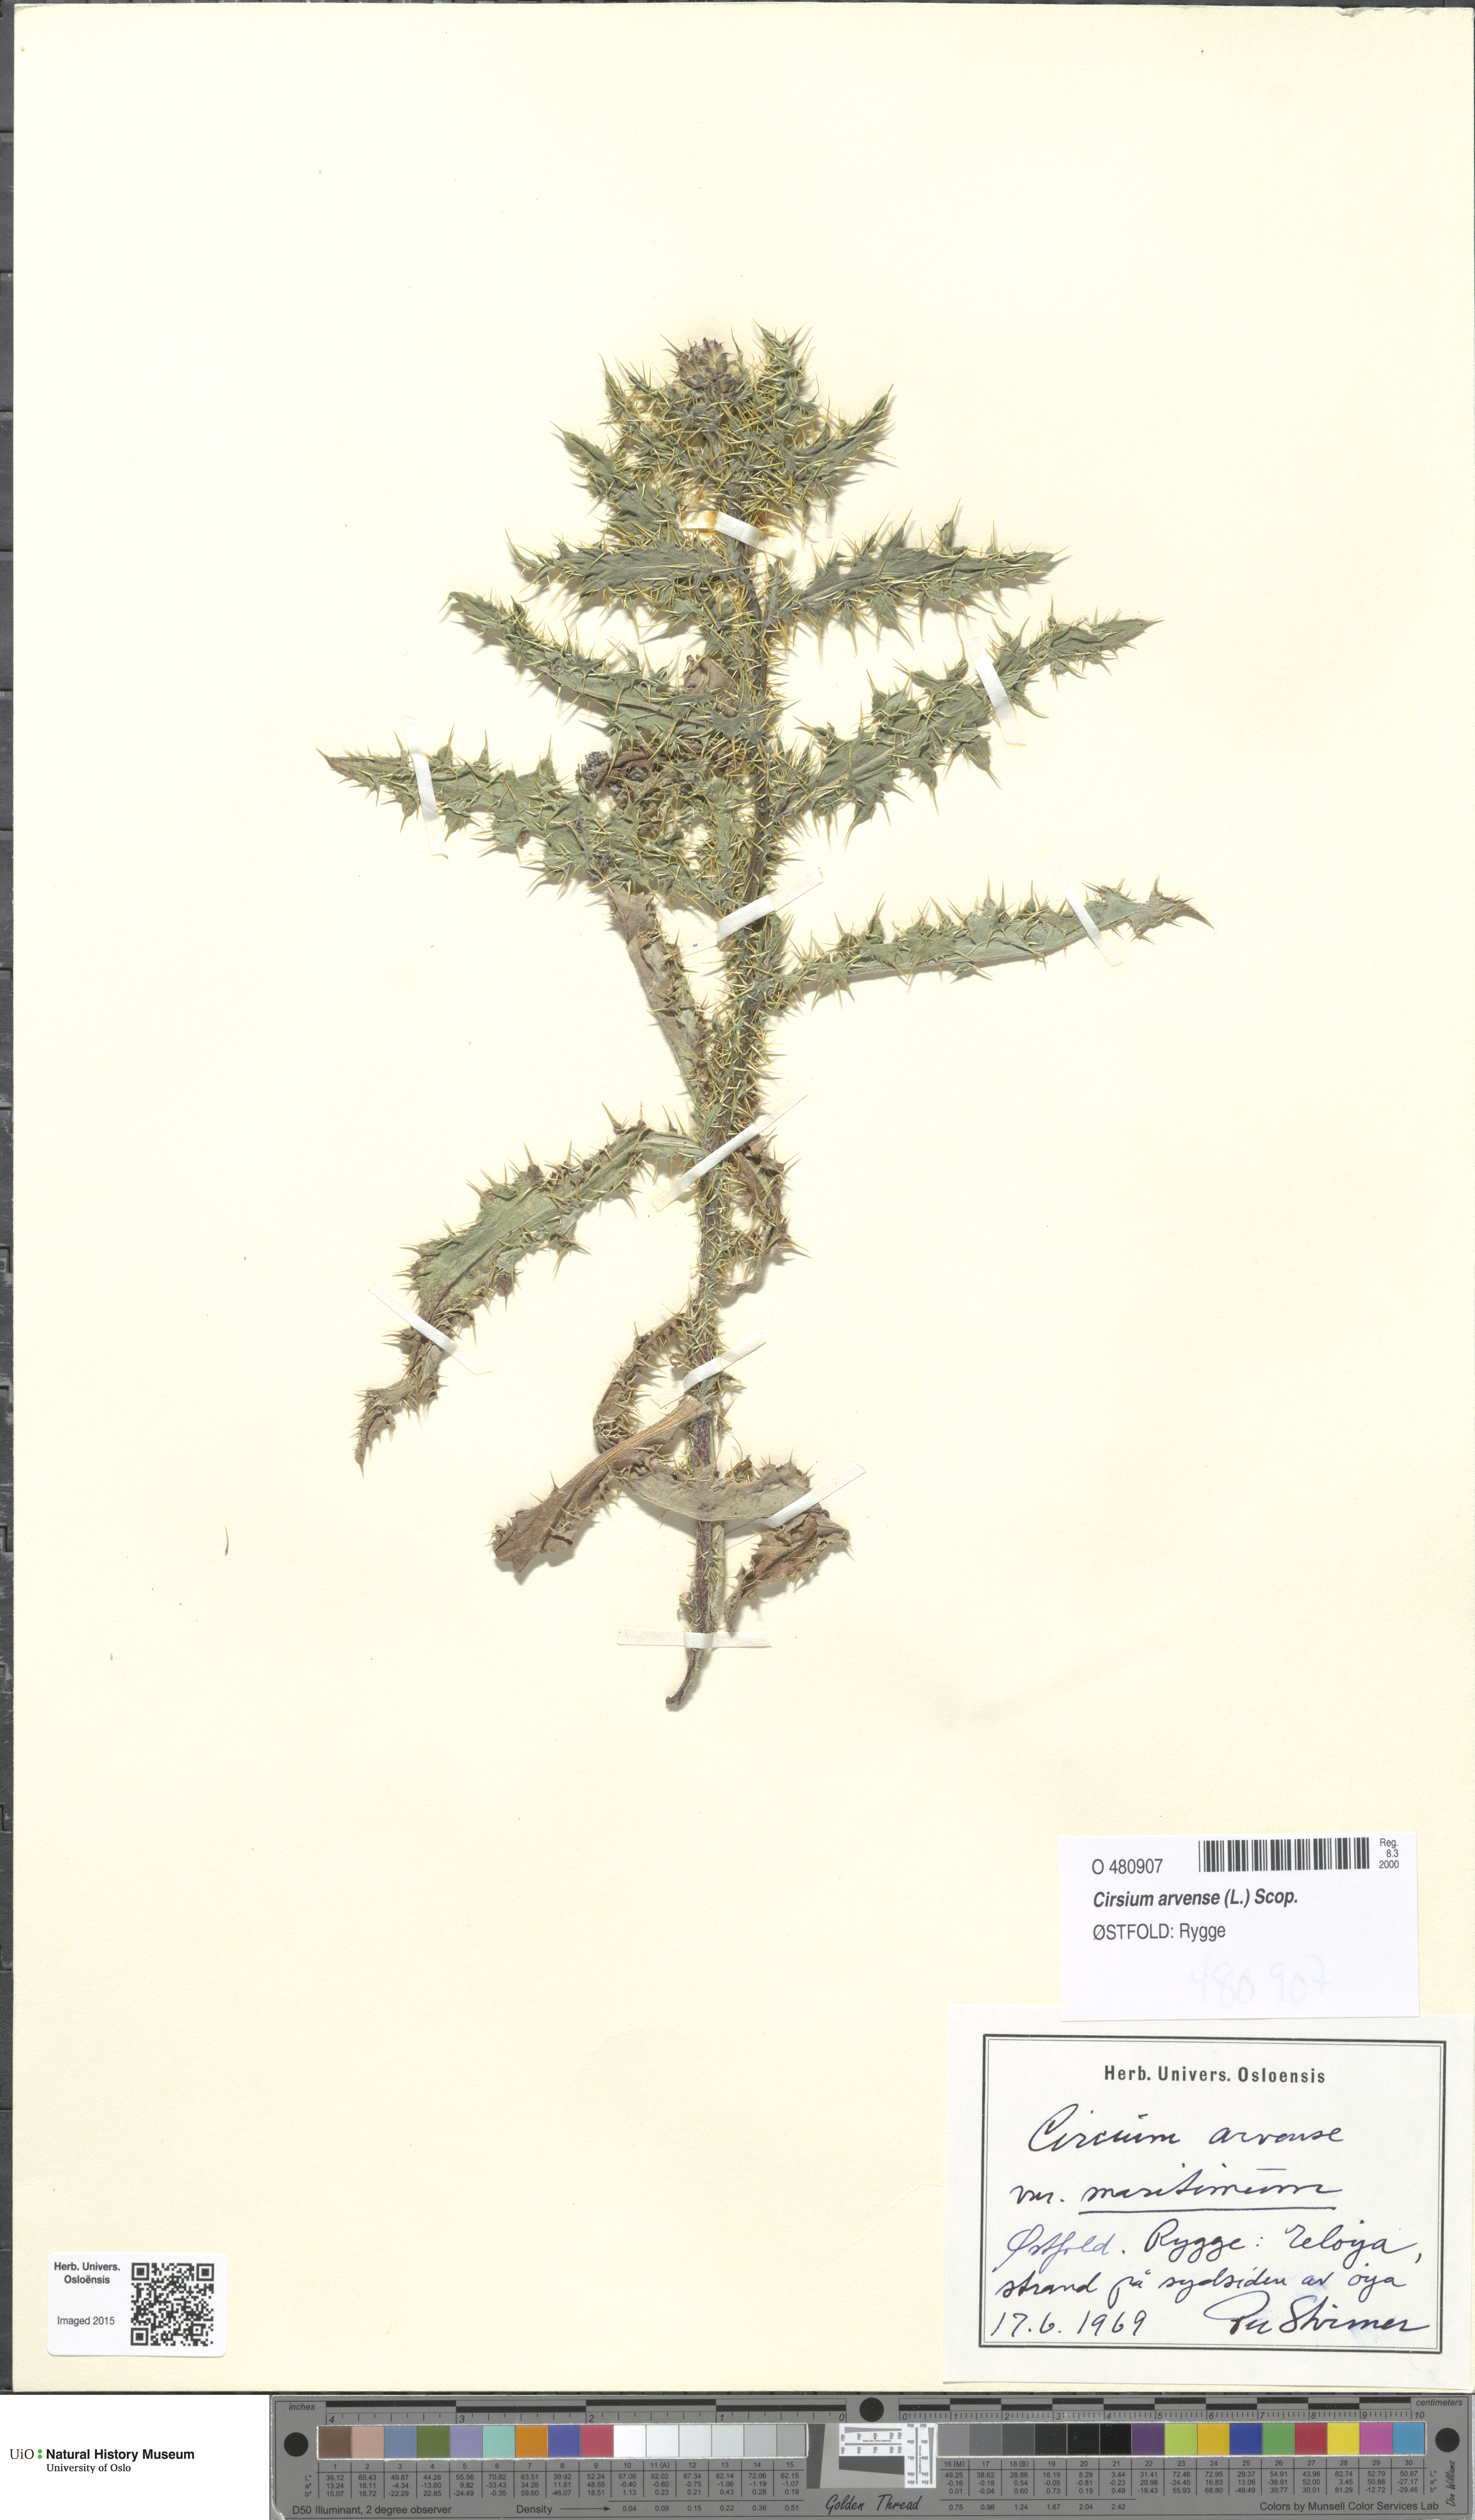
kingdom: Plantae
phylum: Tracheophyta
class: Magnoliopsida
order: Asterales
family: Asteraceae
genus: Cirsium
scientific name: Cirsium arvense
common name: Creeping thistle
